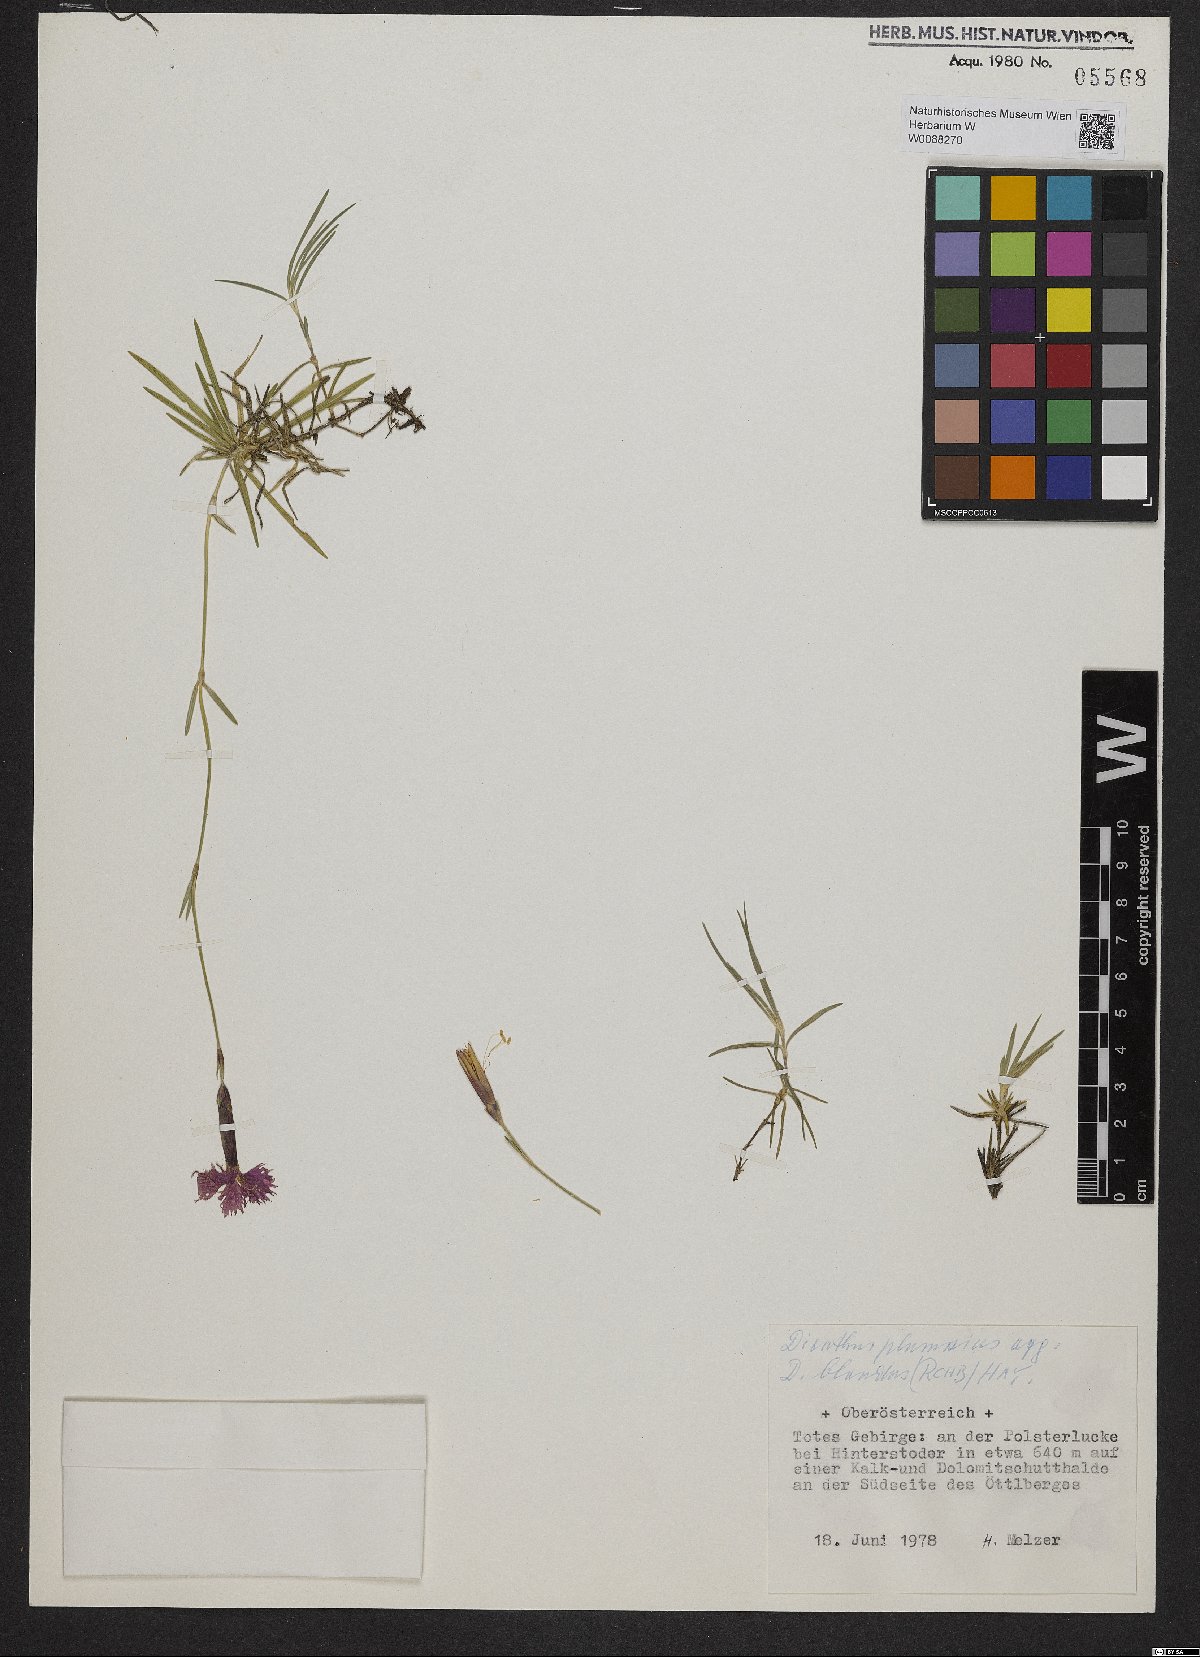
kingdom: Plantae
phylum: Tracheophyta
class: Magnoliopsida
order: Caryophyllales
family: Caryophyllaceae
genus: Dianthus
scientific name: Dianthus plumarius
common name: Pink
